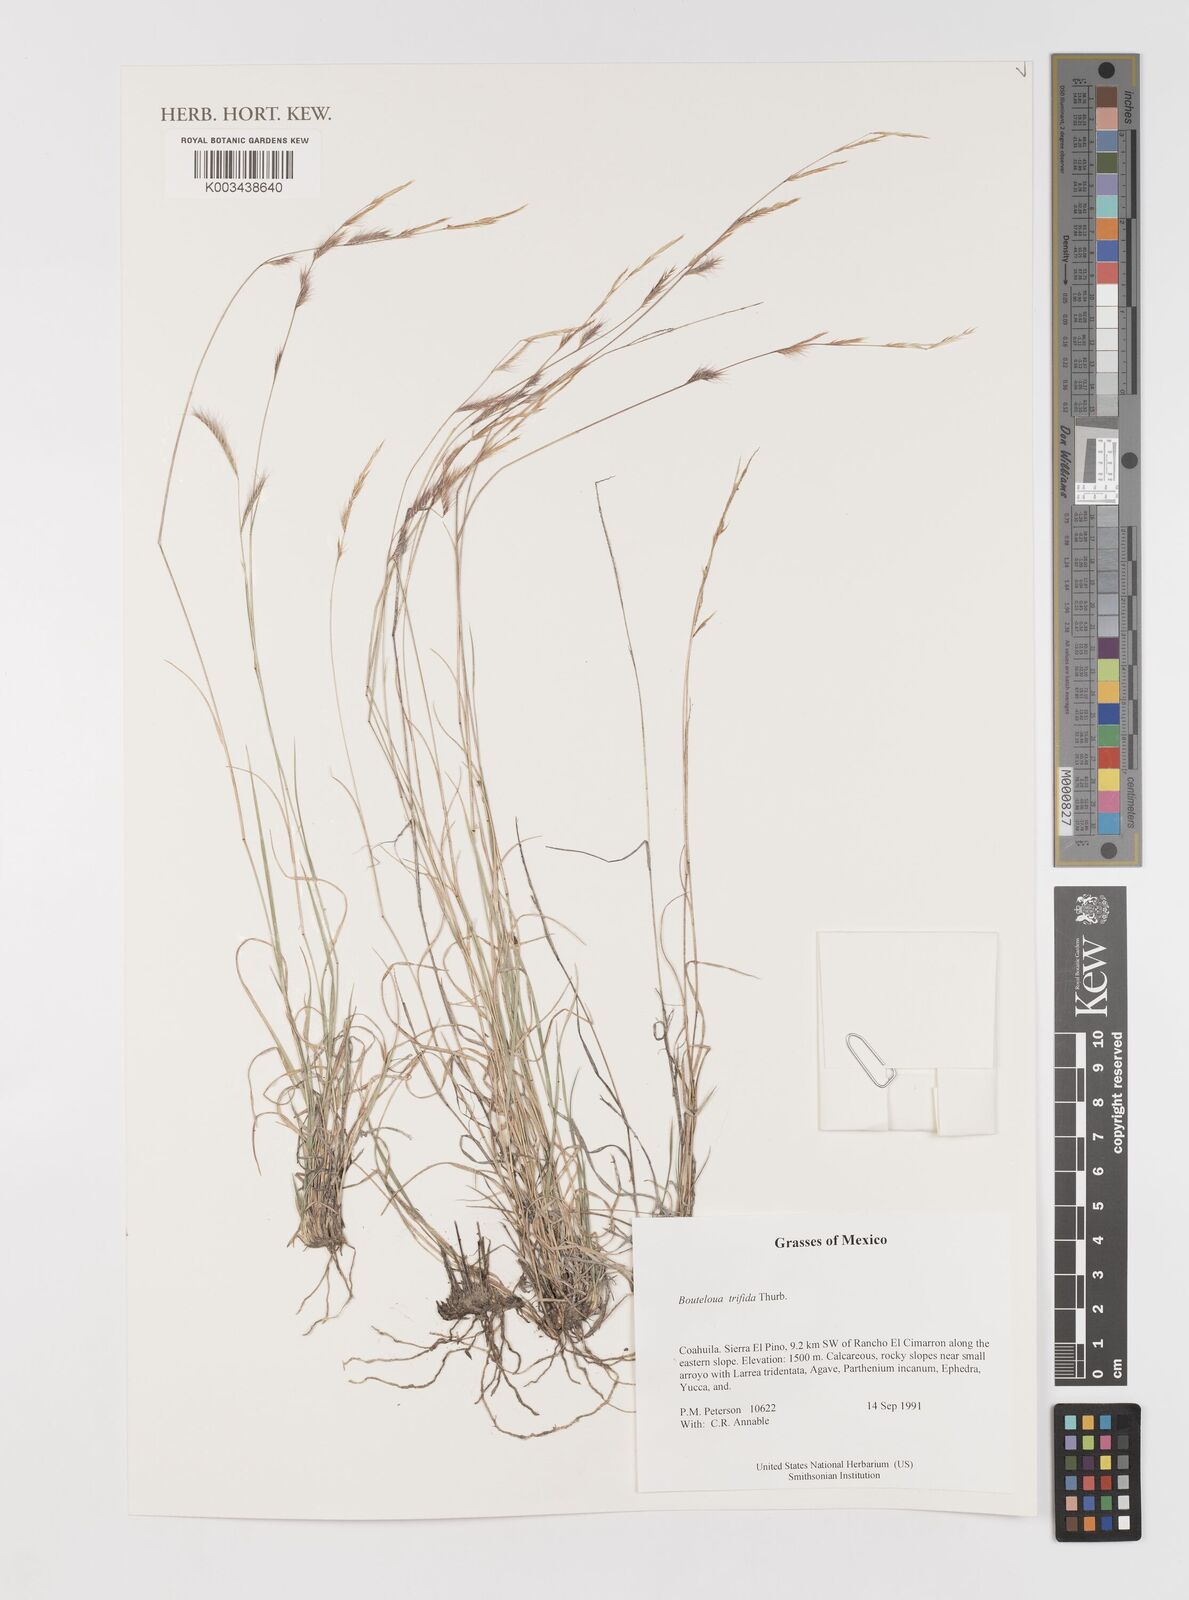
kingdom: Plantae
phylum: Tracheophyta
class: Liliopsida
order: Poales
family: Poaceae
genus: Bouteloua
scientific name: Bouteloua
